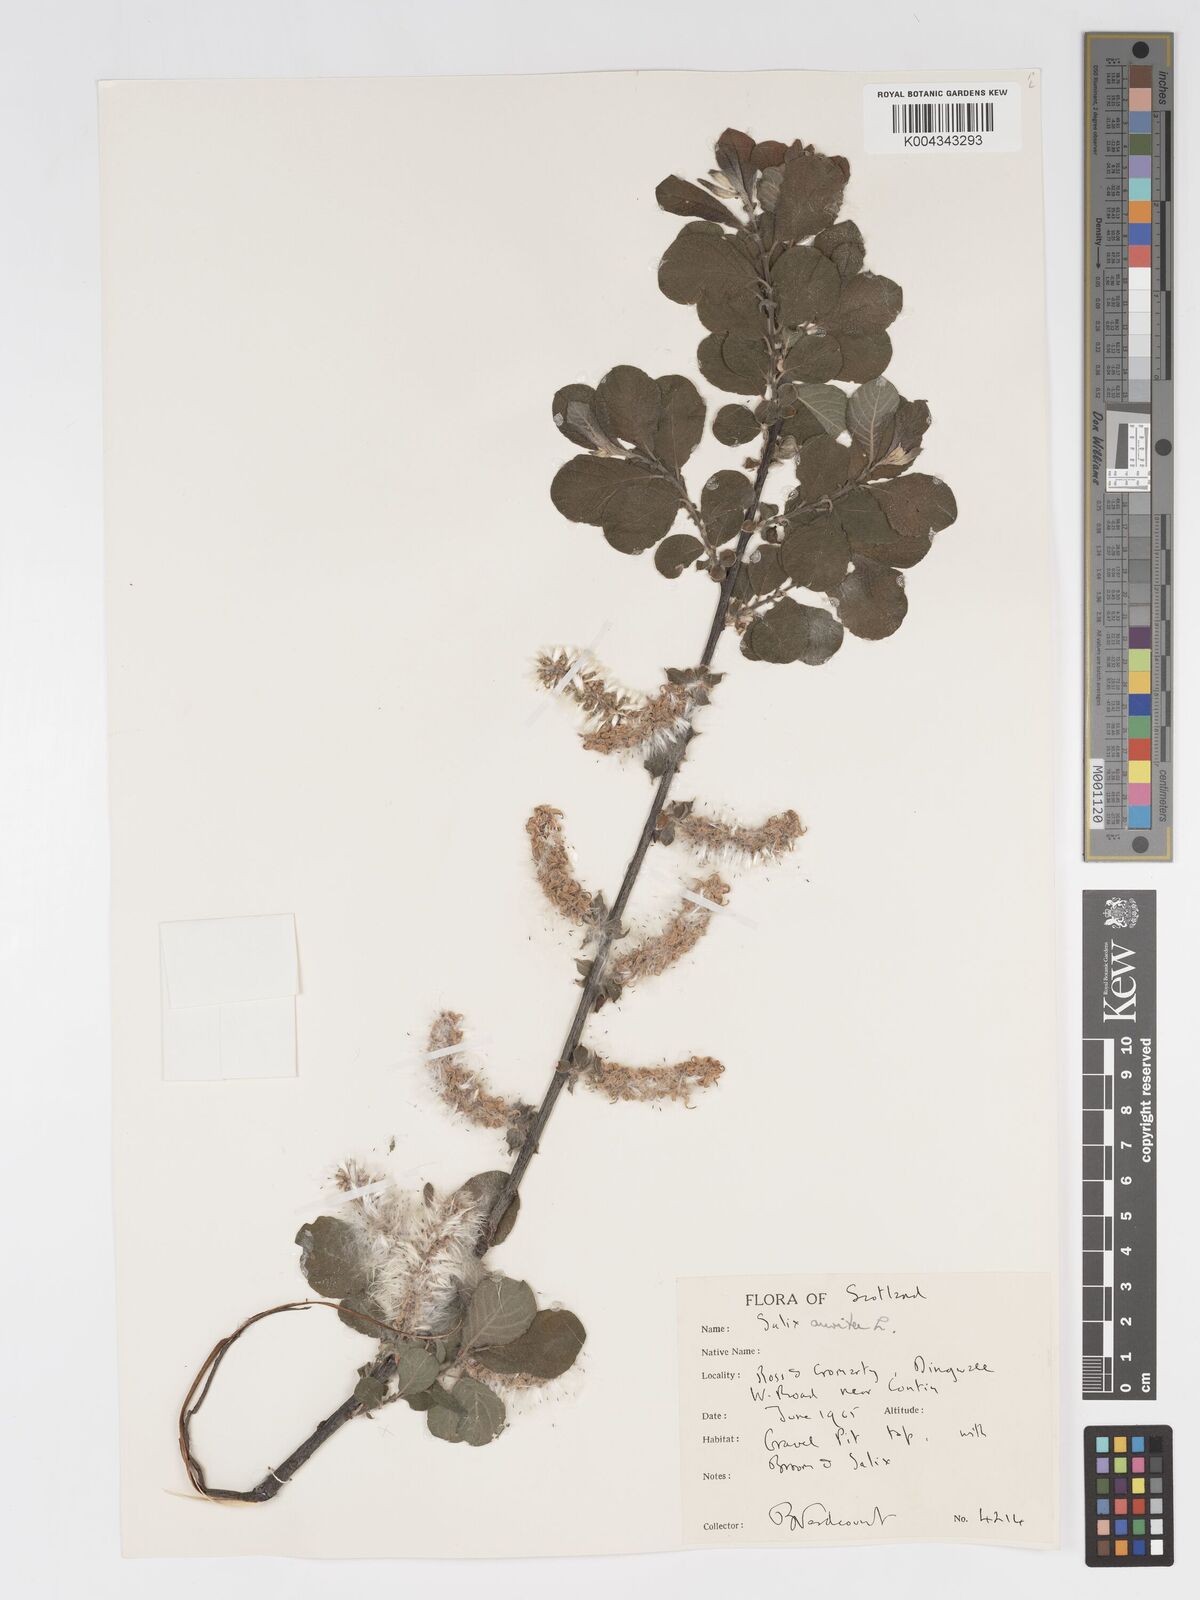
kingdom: Plantae
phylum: Tracheophyta
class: Magnoliopsida
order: Malpighiales
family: Salicaceae
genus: Salix
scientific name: Salix aurita
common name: Eared willow
